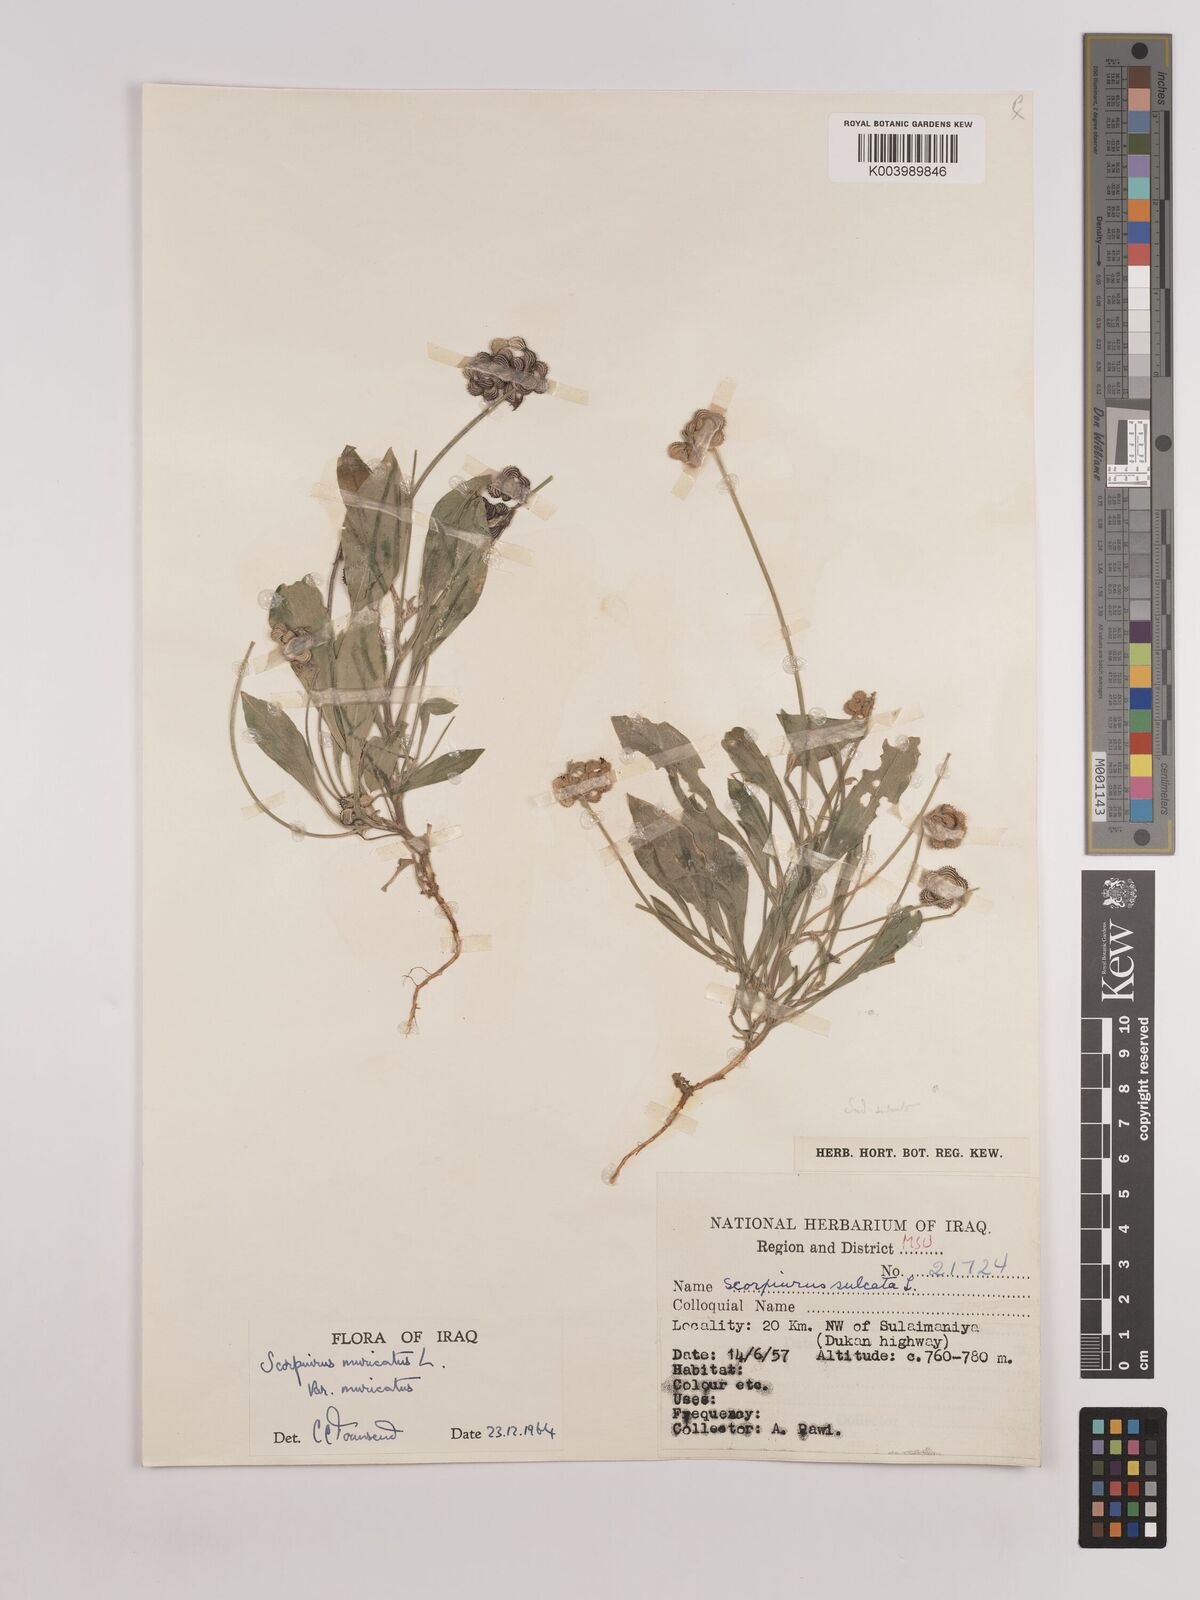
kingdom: Plantae
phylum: Tracheophyta
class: Magnoliopsida
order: Fabales
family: Fabaceae
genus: Scorpiurus
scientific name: Scorpiurus muricatus
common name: Caterpillar-plant
